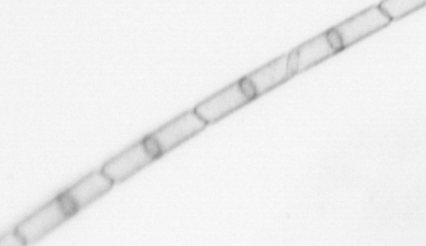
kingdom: Chromista
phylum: Ochrophyta
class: Bacillariophyceae
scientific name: Bacillariophyceae
